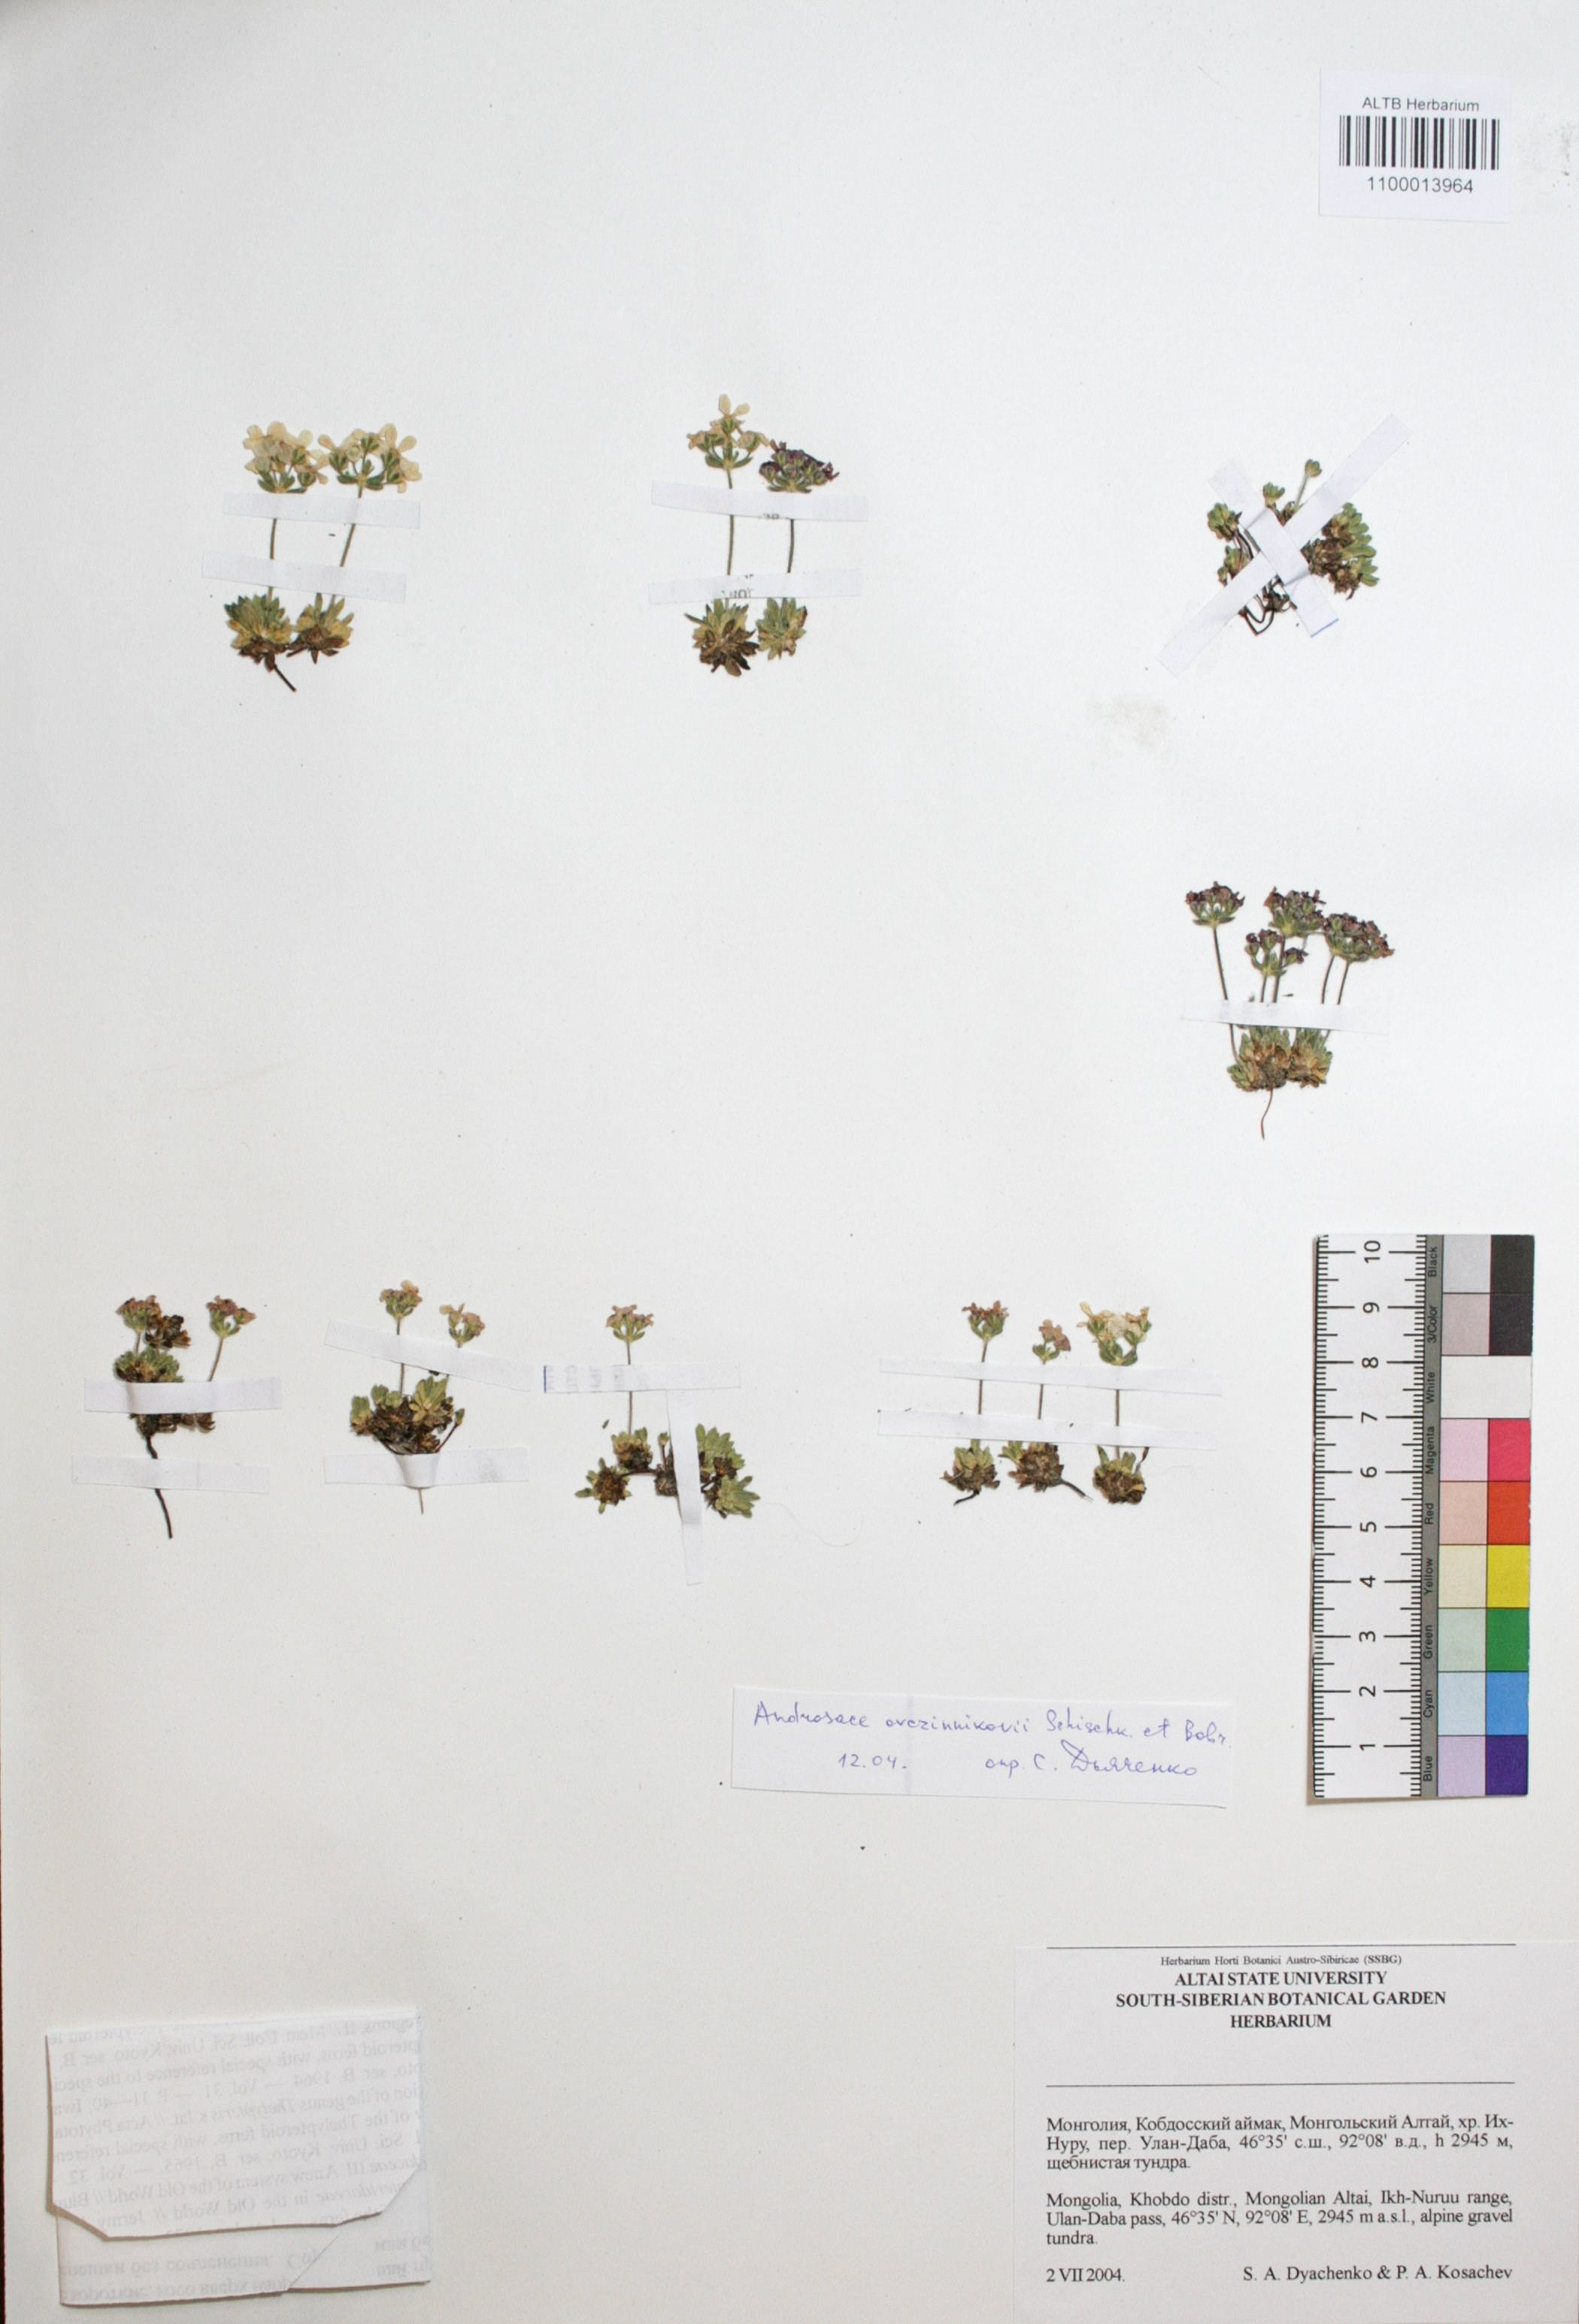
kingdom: Plantae
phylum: Tracheophyta
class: Magnoliopsida
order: Ericales
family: Primulaceae
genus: Androsace
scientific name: Androsace ovczinnikovii
